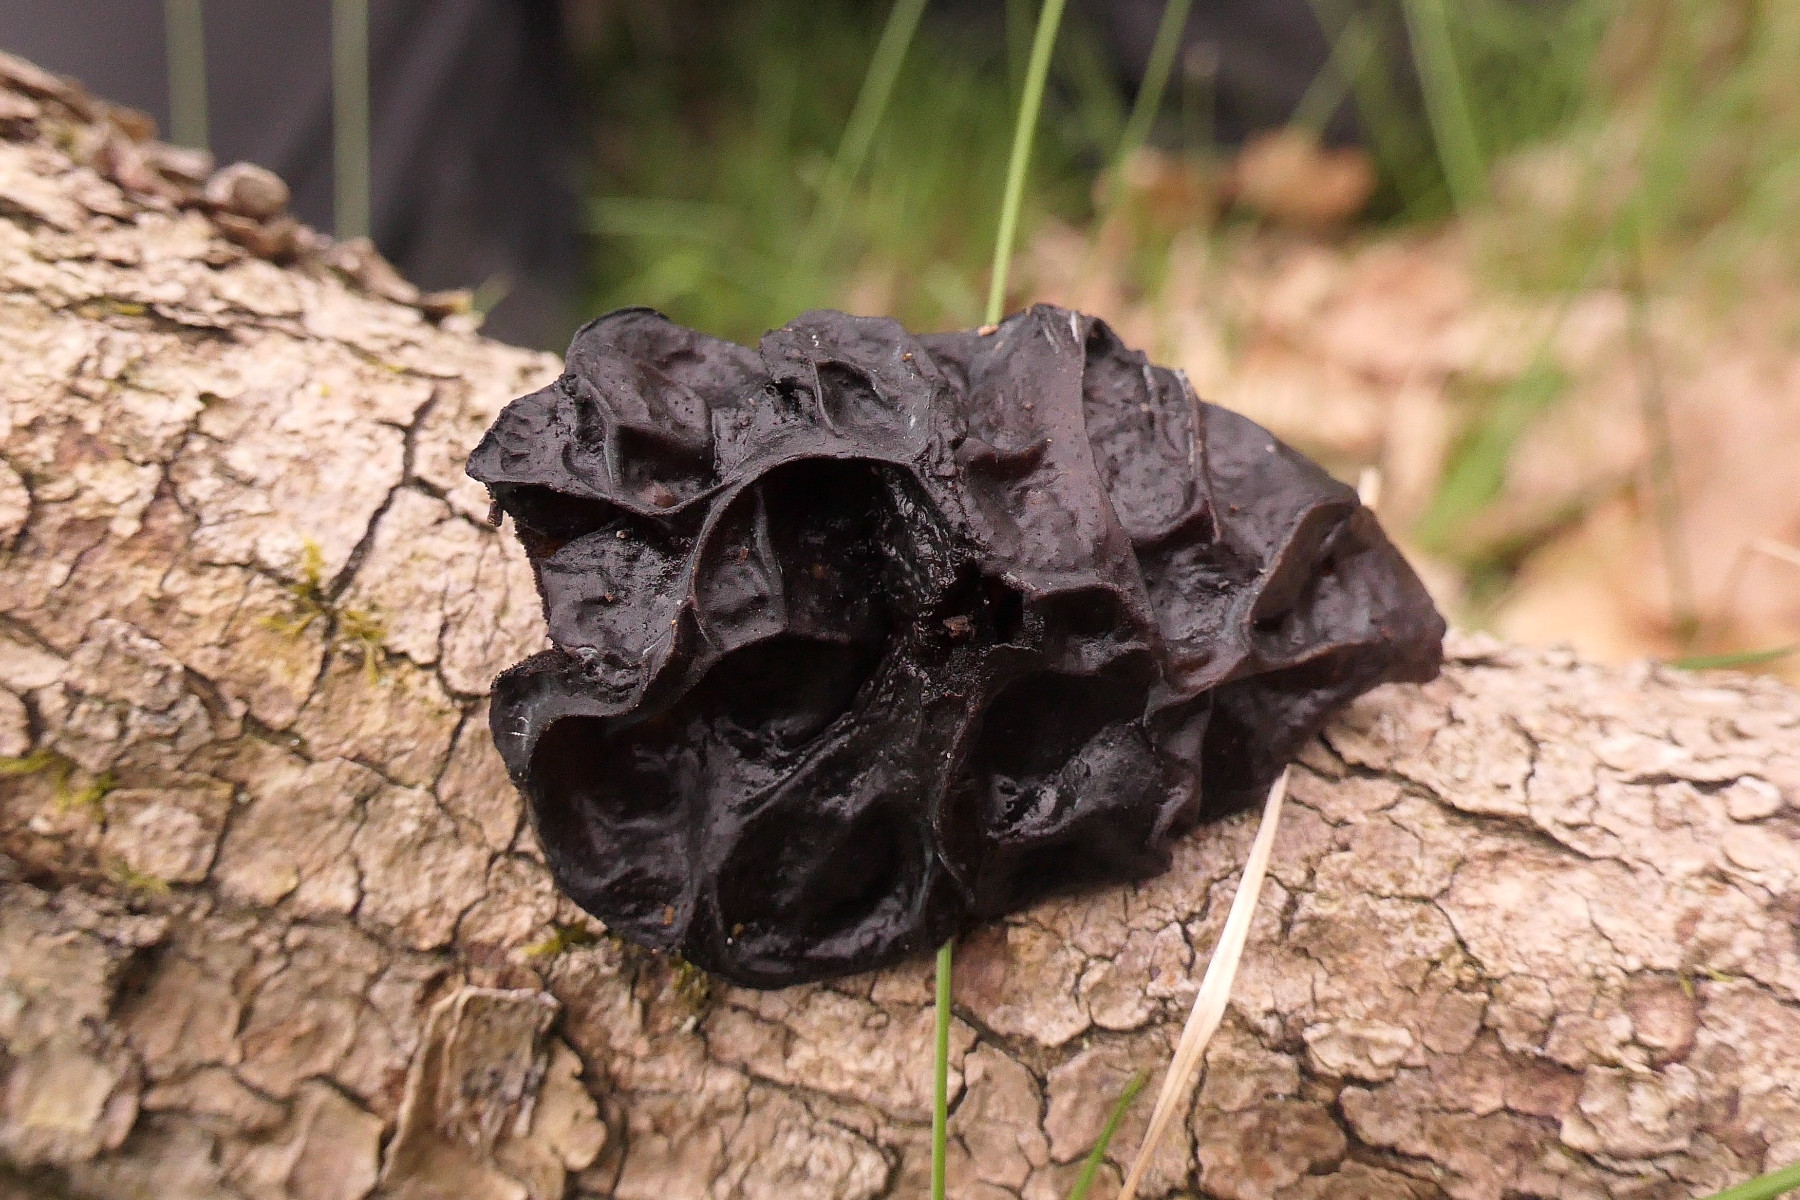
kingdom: Fungi
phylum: Basidiomycota
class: Agaricomycetes
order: Auriculariales
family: Auriculariaceae
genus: Exidia
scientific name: Exidia glandulosa
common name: ege-bævretop
